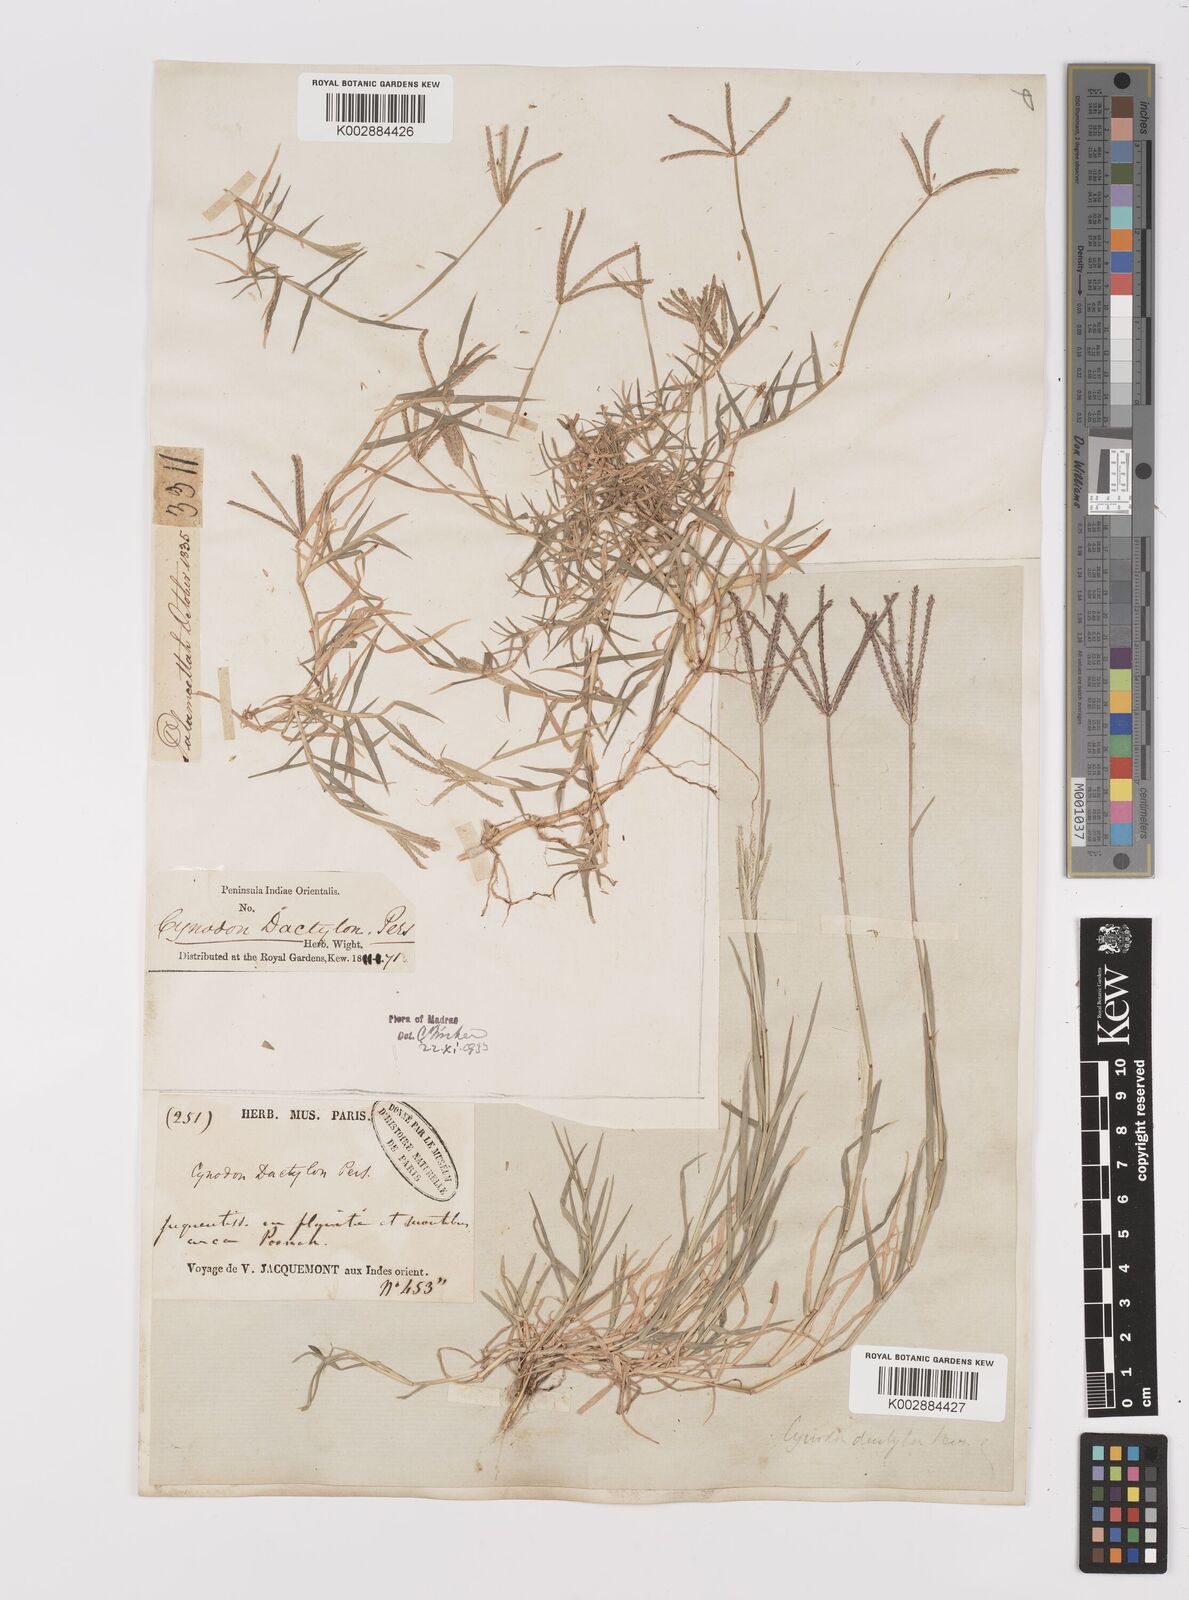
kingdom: Plantae
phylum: Tracheophyta
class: Liliopsida
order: Poales
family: Poaceae
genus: Cynodon
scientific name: Cynodon dactylon
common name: Bermuda grass
